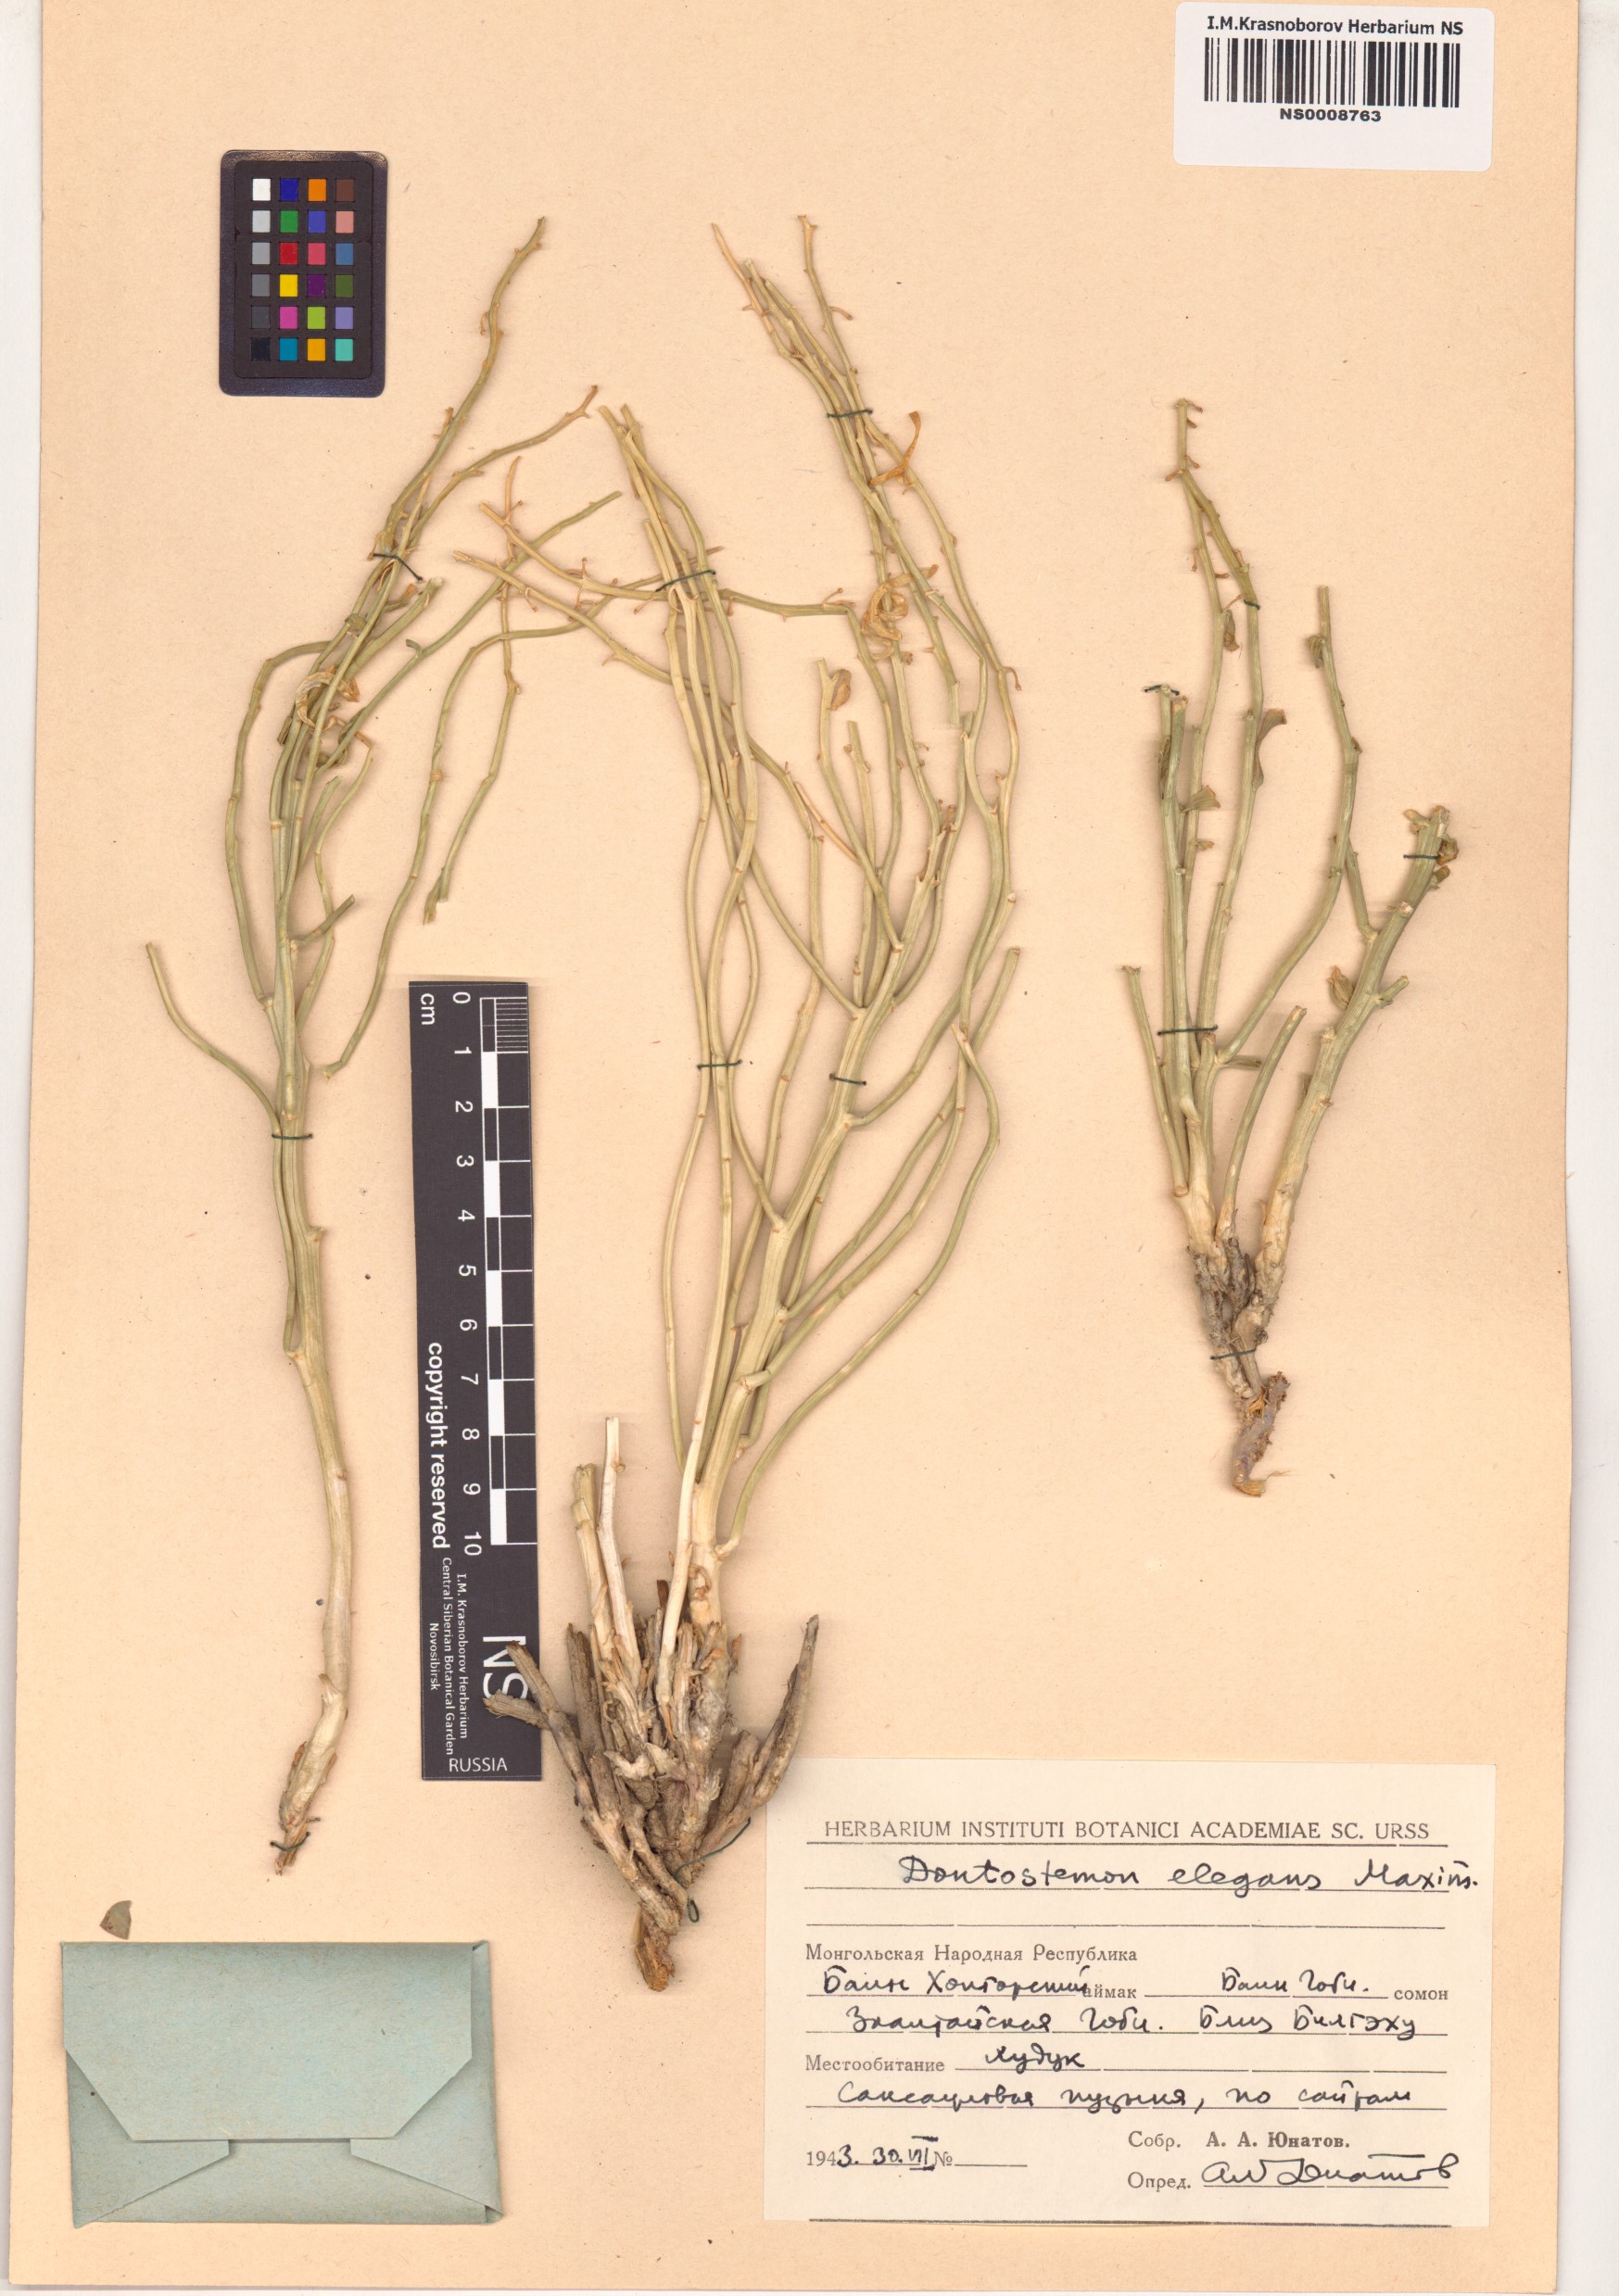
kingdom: Plantae
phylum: Tracheophyta
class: Magnoliopsida
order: Brassicales
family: Brassicaceae
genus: Dontostemon
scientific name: Dontostemon elegans
